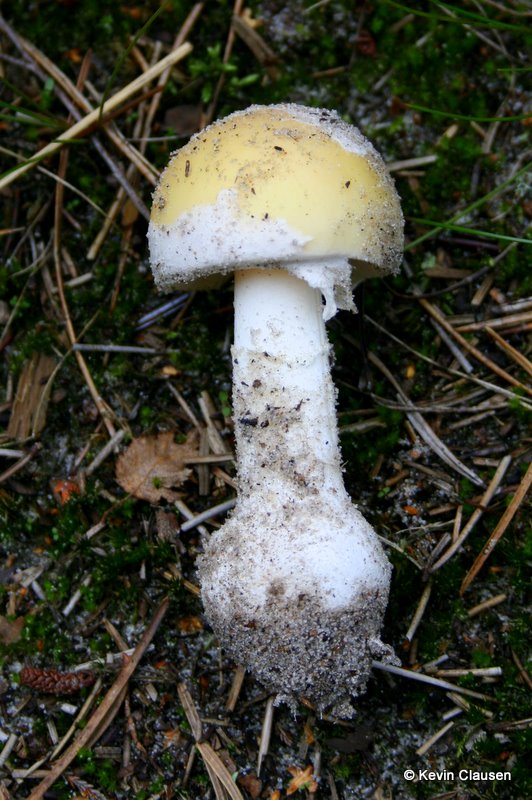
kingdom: Fungi
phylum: Basidiomycota
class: Agaricomycetes
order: Agaricales
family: Amanitaceae
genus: Amanita
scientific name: Amanita gemmata
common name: okkergul fluesvamp
